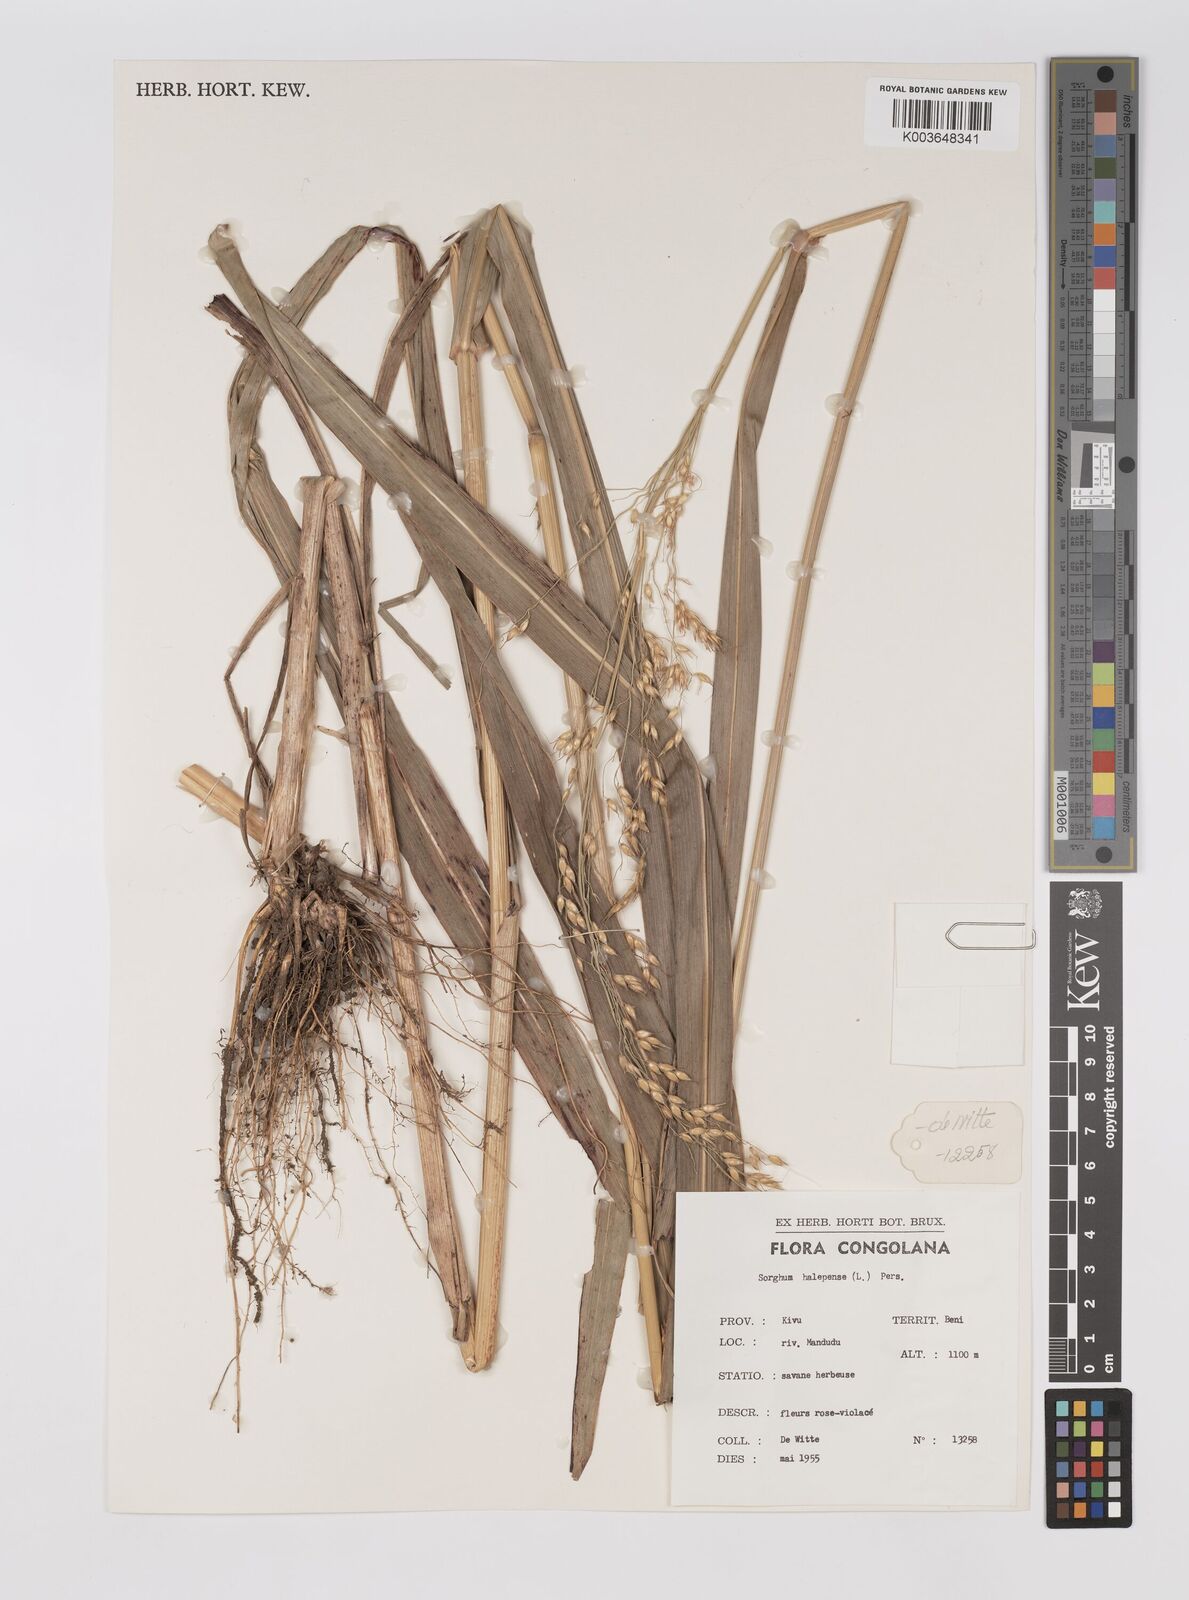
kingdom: Plantae
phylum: Tracheophyta
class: Liliopsida
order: Poales
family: Poaceae
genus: Sorghum
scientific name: Sorghum arundinaceum
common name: Sorghum
